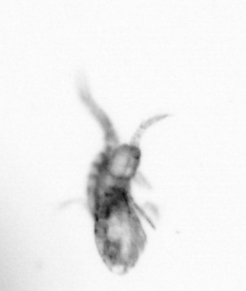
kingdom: Animalia
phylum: Arthropoda
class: Copepoda
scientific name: Copepoda
